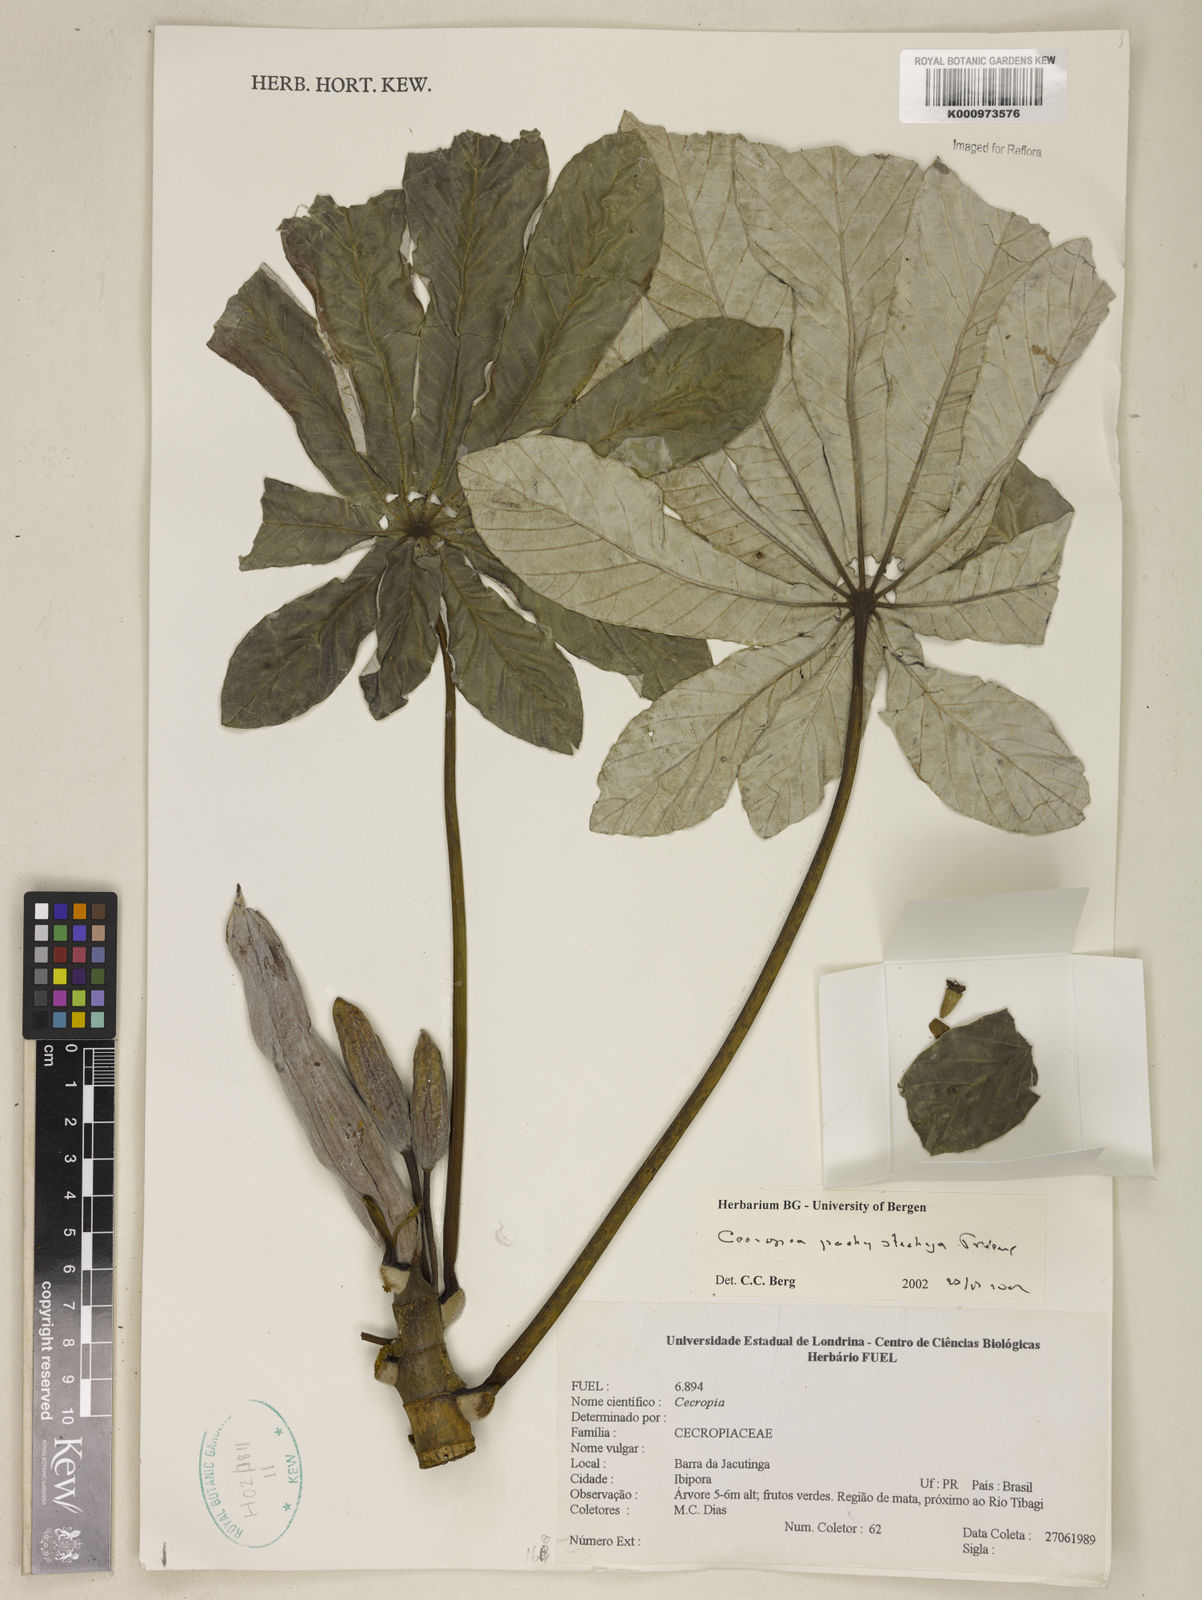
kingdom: Plantae
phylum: Tracheophyta
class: Magnoliopsida
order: Rosales
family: Urticaceae
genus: Cecropia
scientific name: Cecropia
